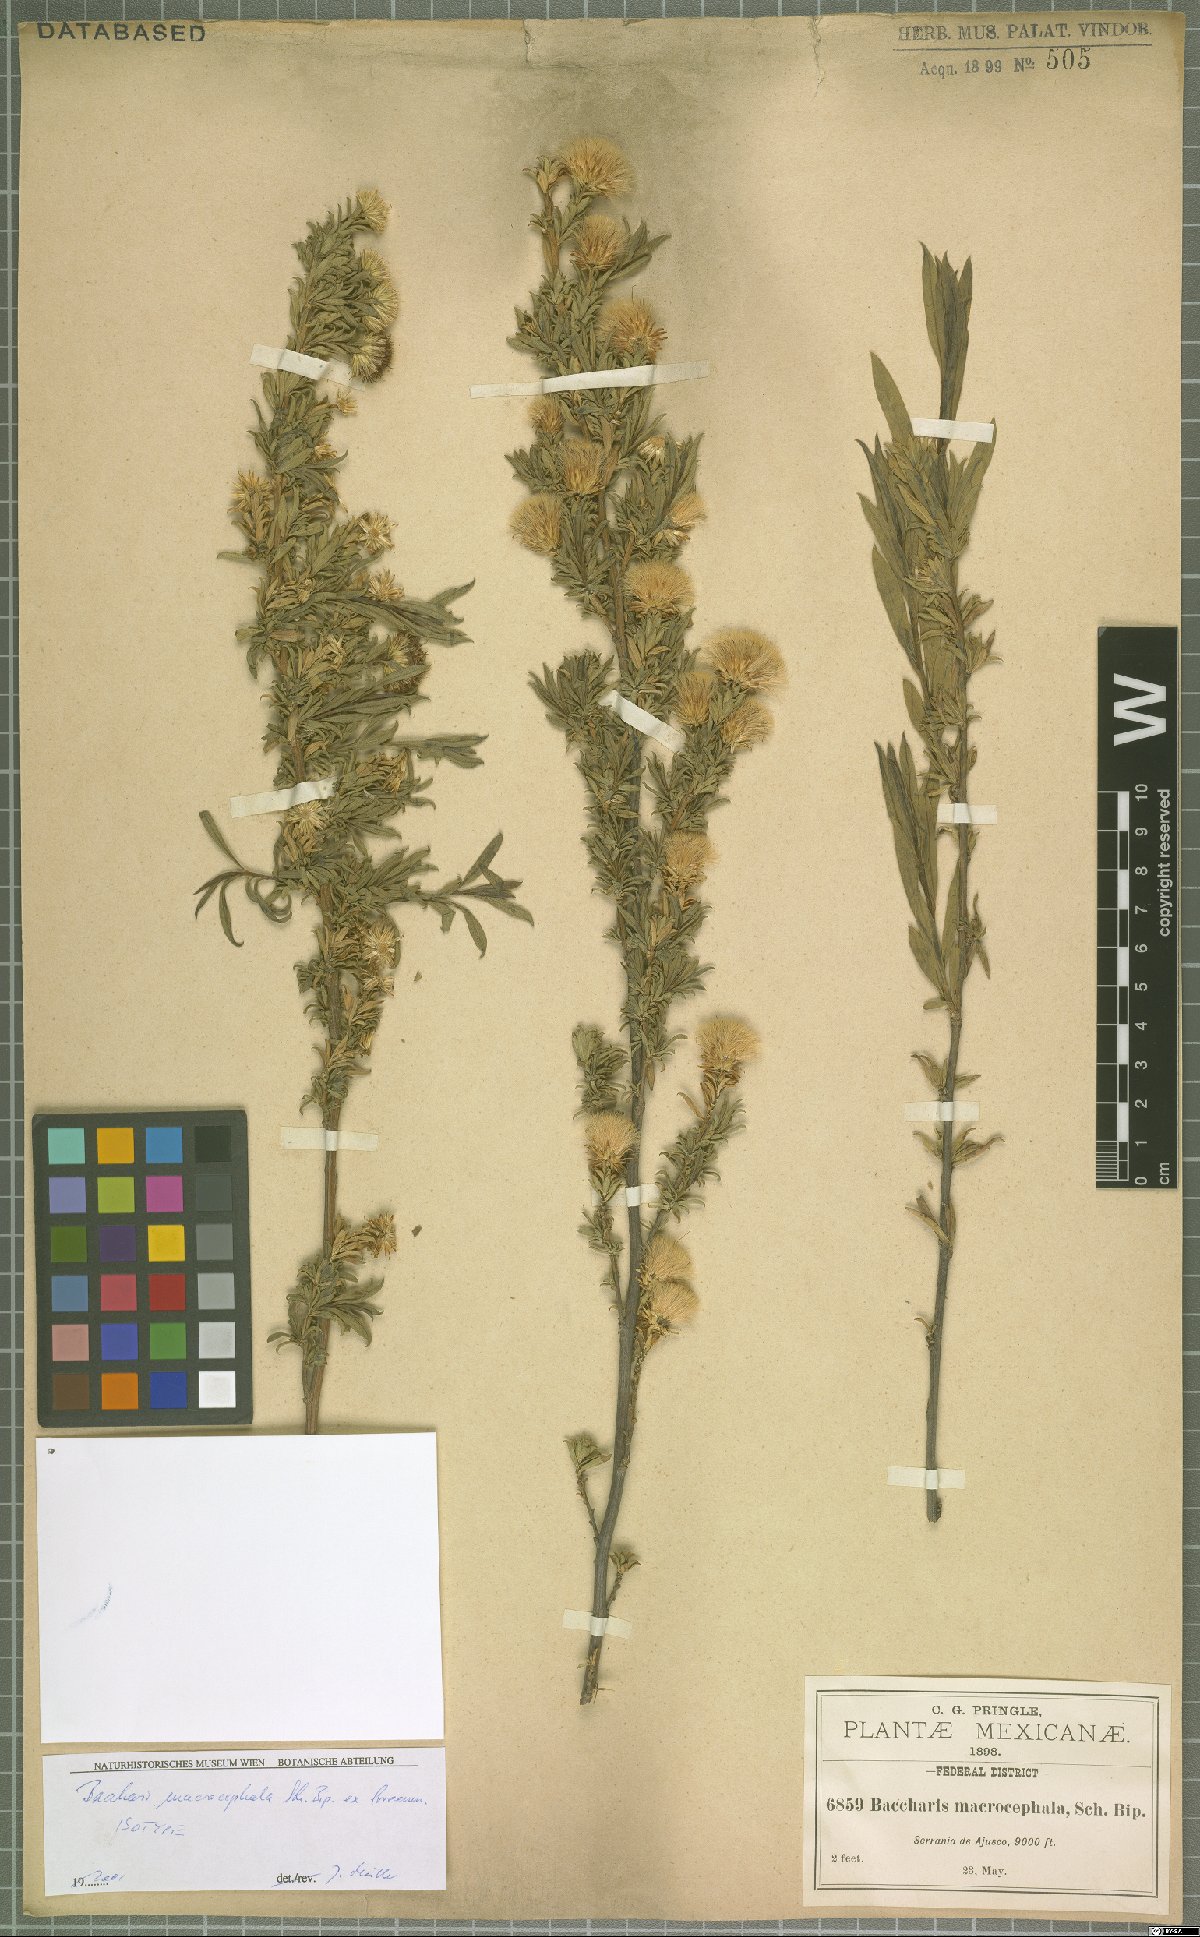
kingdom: Plantae
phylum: Tracheophyta
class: Magnoliopsida
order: Asterales
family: Asteraceae
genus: Baccharis
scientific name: Baccharis macrocephala
